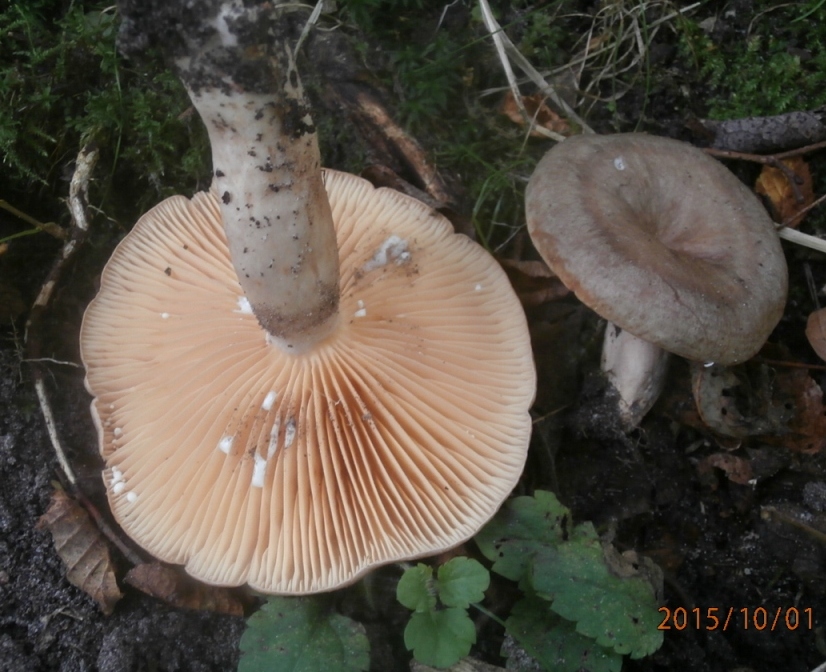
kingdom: Fungi
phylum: Basidiomycota
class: Agaricomycetes
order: Russulales
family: Russulaceae
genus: Lactarius
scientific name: Lactarius pyrogalus
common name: hassel-mælkehat
